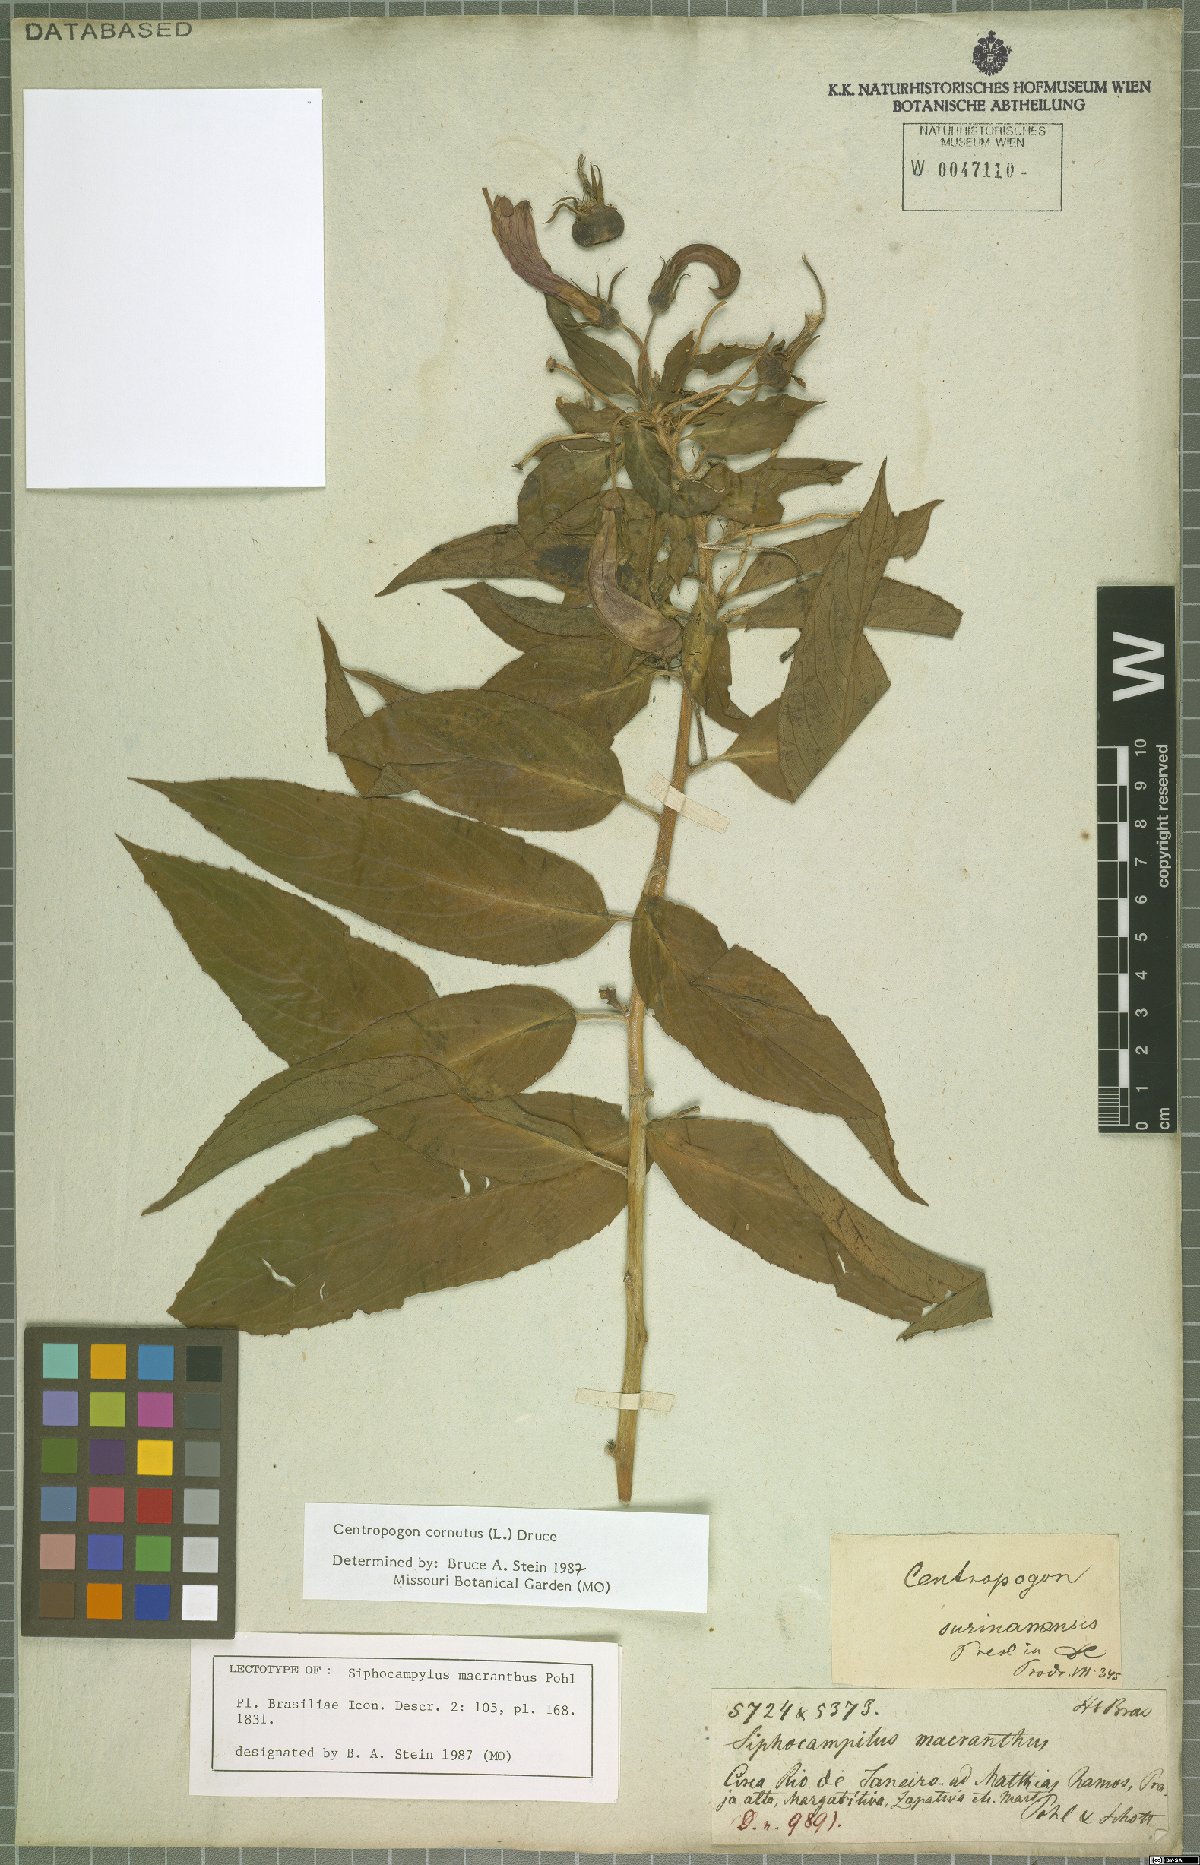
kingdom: Plantae
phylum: Tracheophyta
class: Magnoliopsida
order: Asterales
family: Campanulaceae
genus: Centropogon
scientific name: Centropogon cornutus
